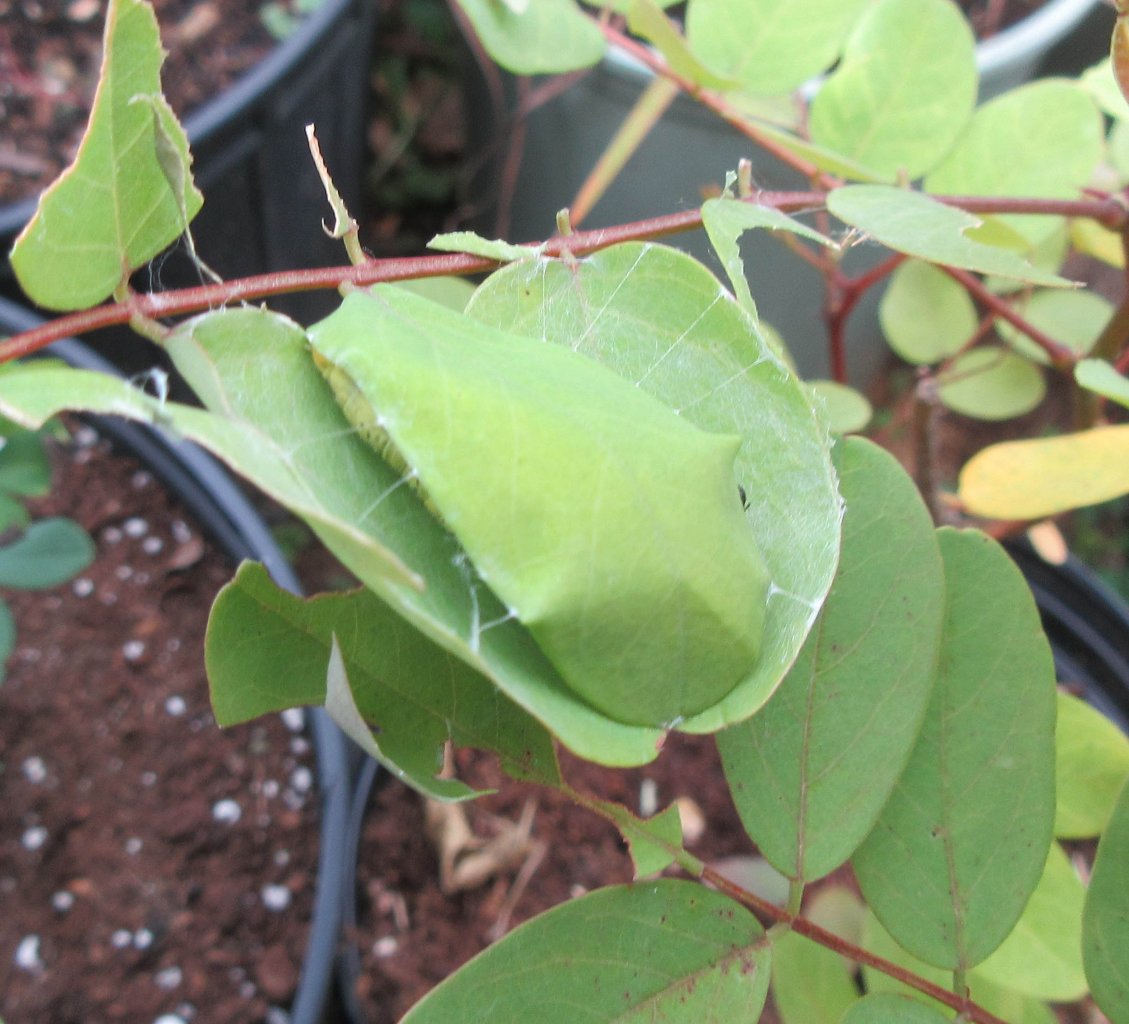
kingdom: Animalia
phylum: Arthropoda
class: Insecta
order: Lepidoptera
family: Hesperiidae
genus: Epargyreus
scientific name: Epargyreus clarus
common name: Silver-spotted Skipper
